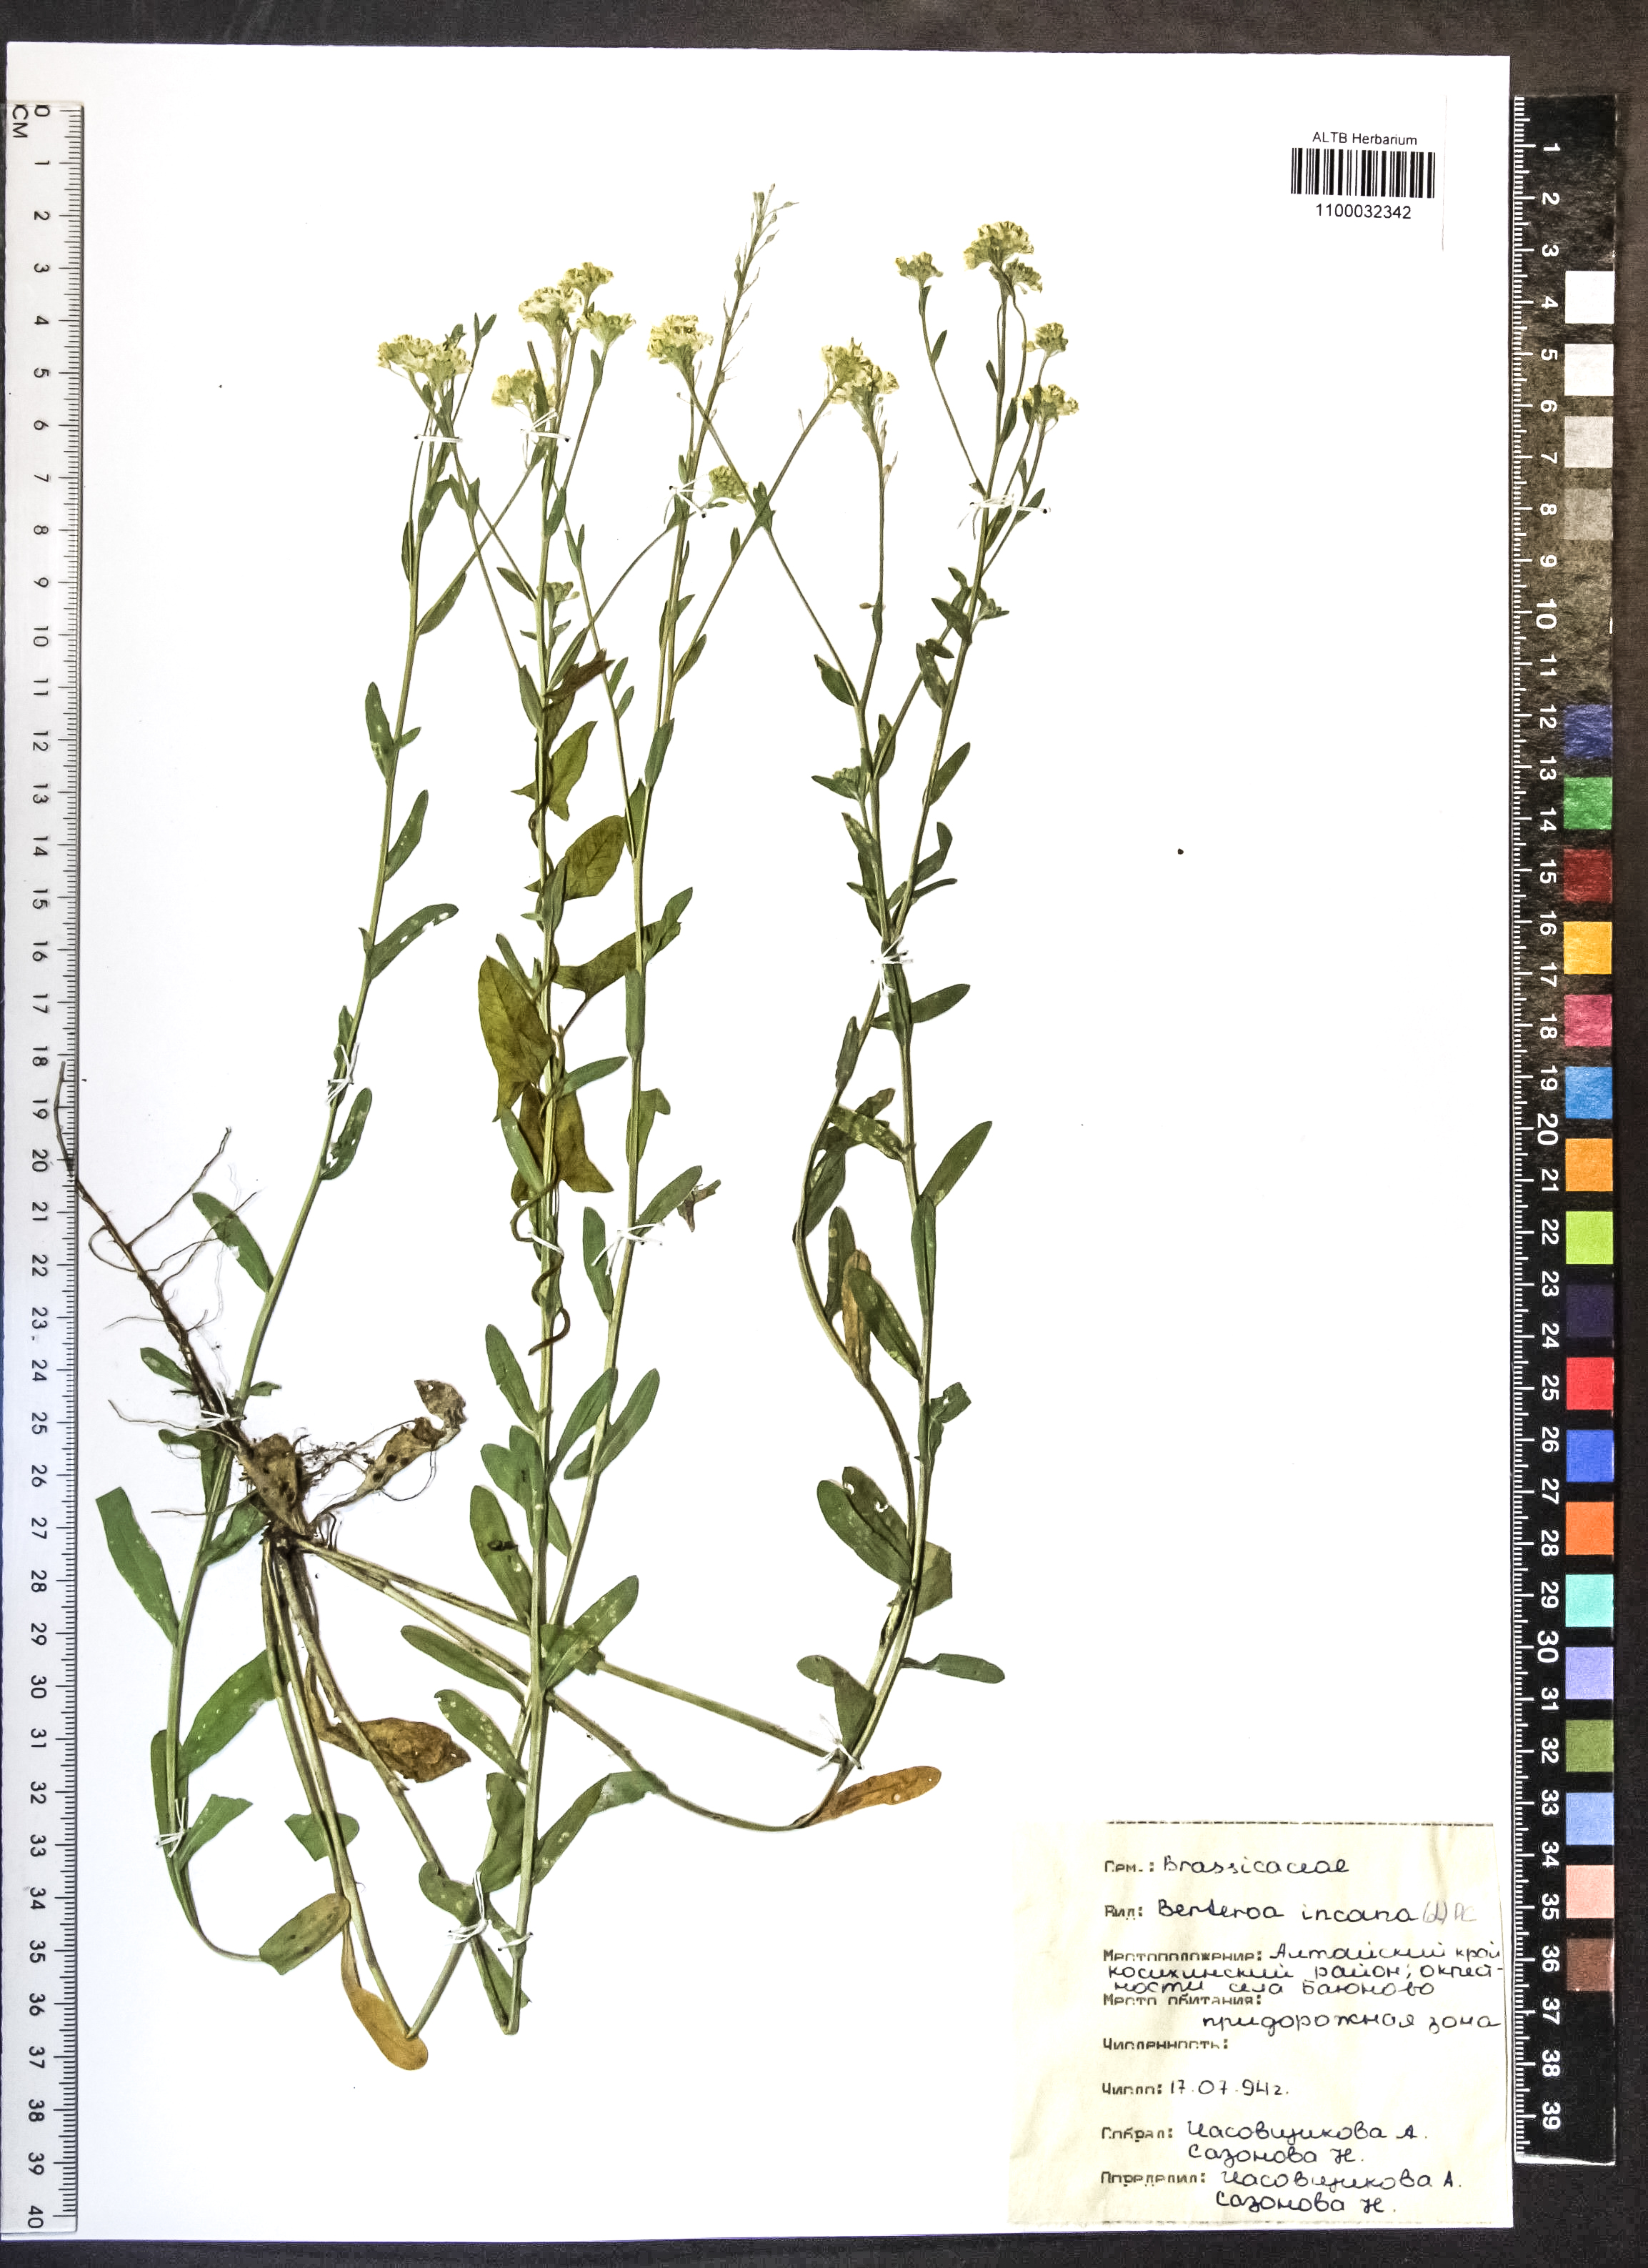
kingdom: Plantae
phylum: Tracheophyta
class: Magnoliopsida
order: Brassicales
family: Brassicaceae
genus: Berteroa
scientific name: Berteroa incana
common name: Hoary alison
